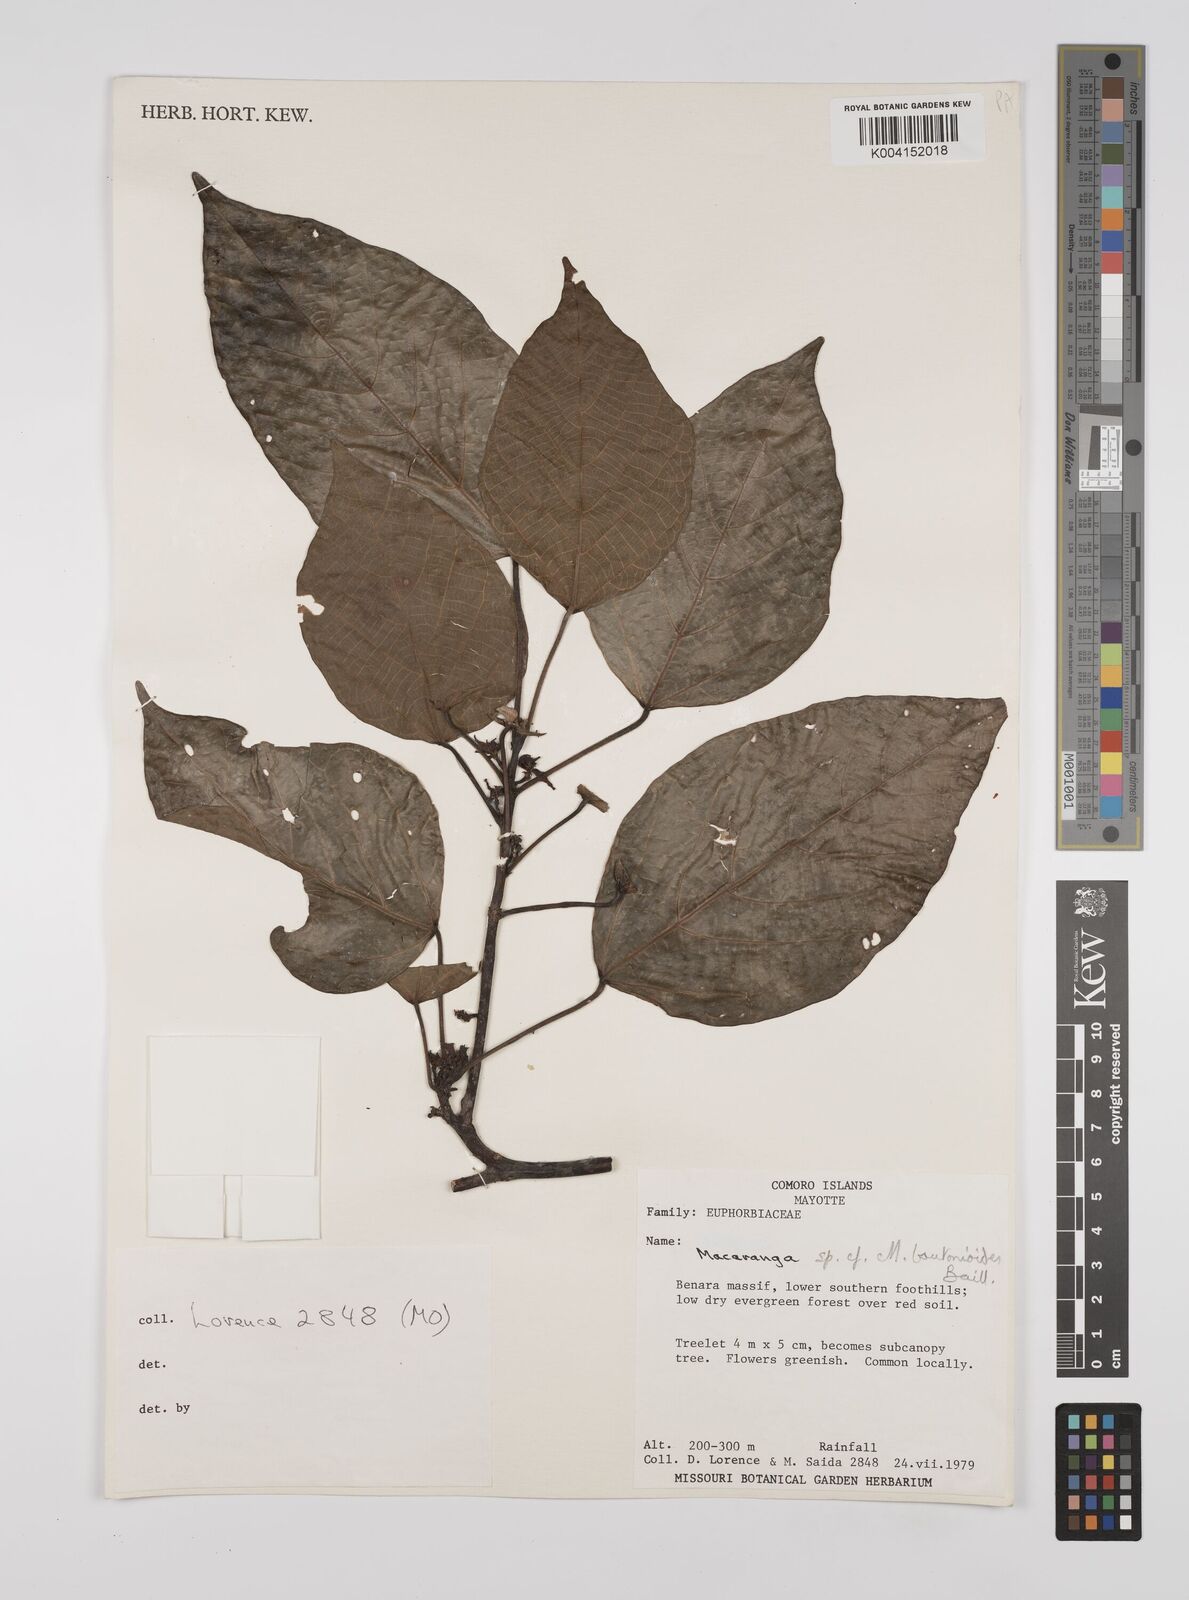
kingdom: Plantae
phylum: Tracheophyta
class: Magnoliopsida
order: Malpighiales
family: Euphorbiaceae
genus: Macaranga
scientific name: Macaranga boutonioides
